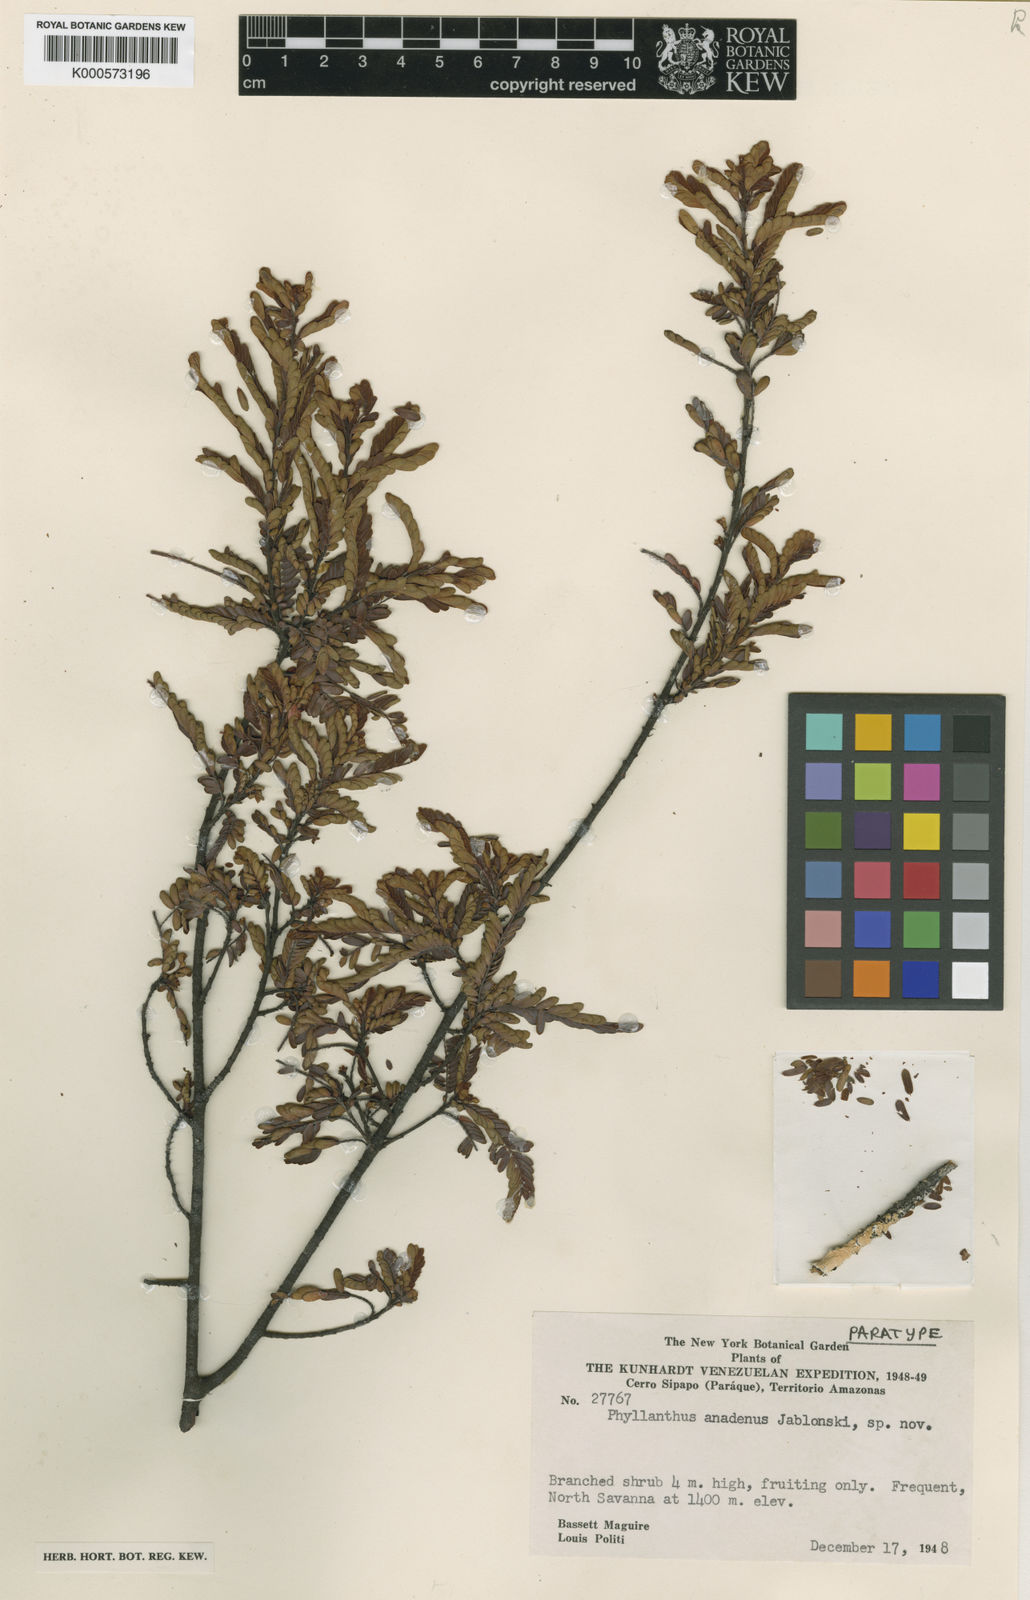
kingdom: Plantae
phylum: Tracheophyta
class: Magnoliopsida
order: Malpighiales
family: Phyllanthaceae
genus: Phyllanthus
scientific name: Phyllanthus subapicalis
